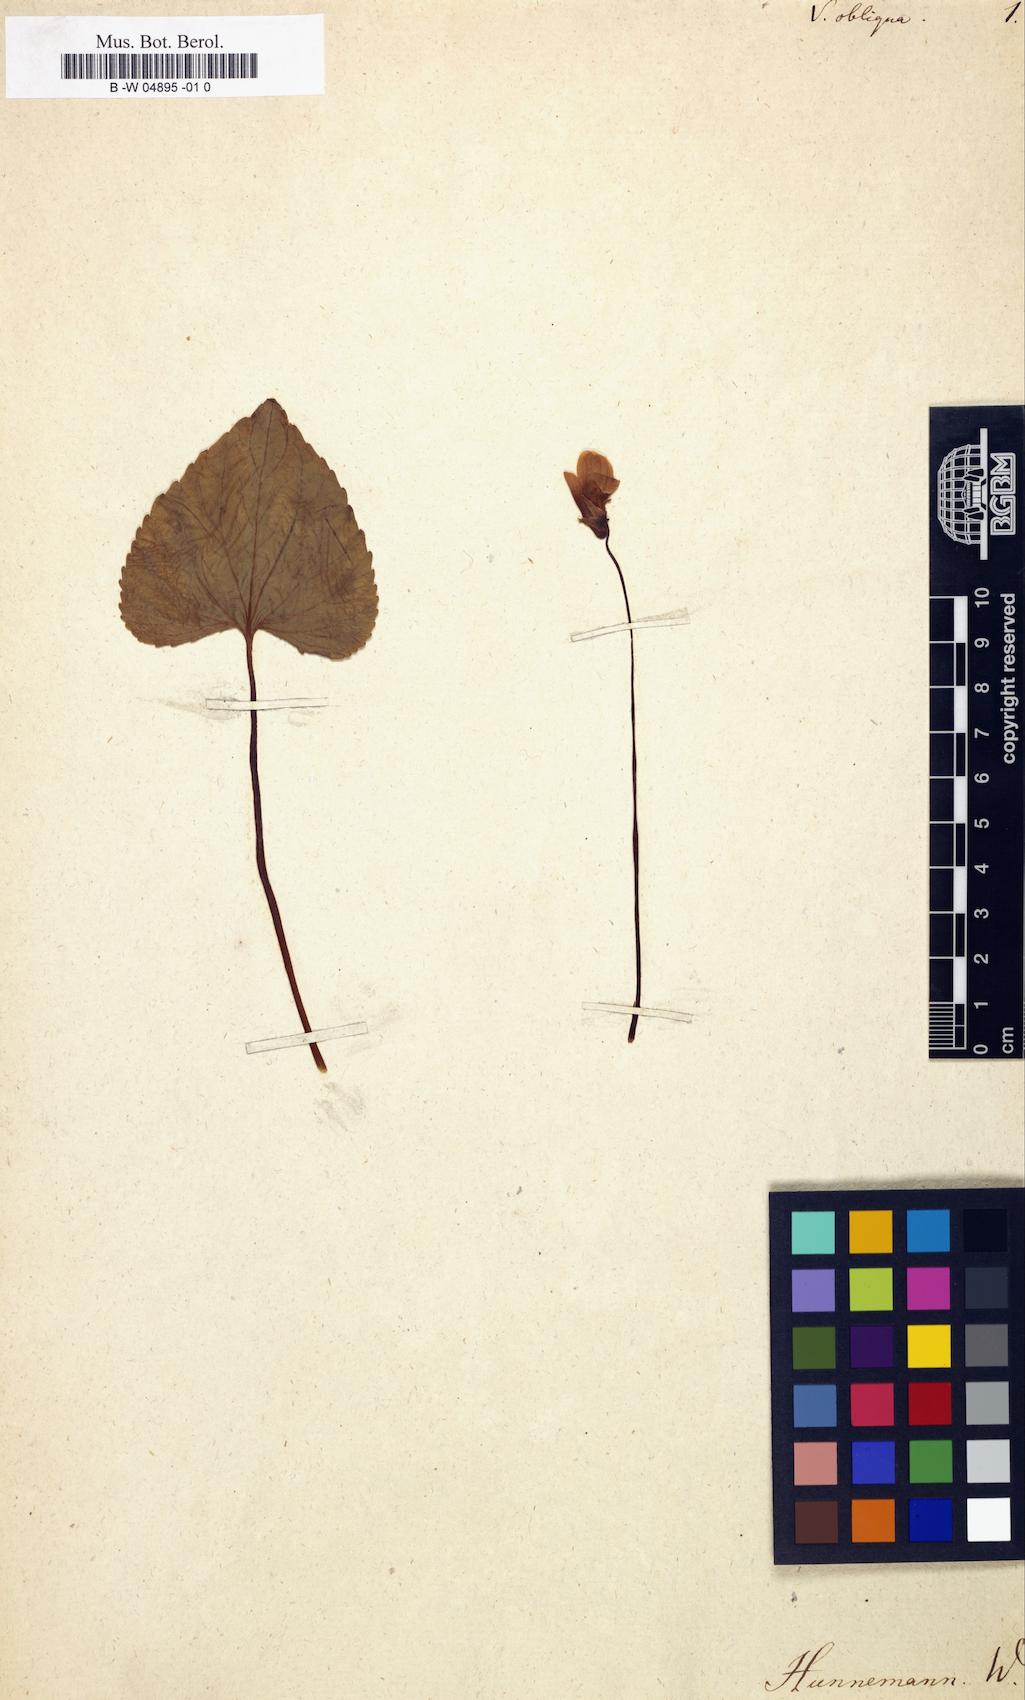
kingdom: Plantae
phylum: Tracheophyta
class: Magnoliopsida
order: Malpighiales
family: Violaceae
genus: Viola
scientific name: Viola
